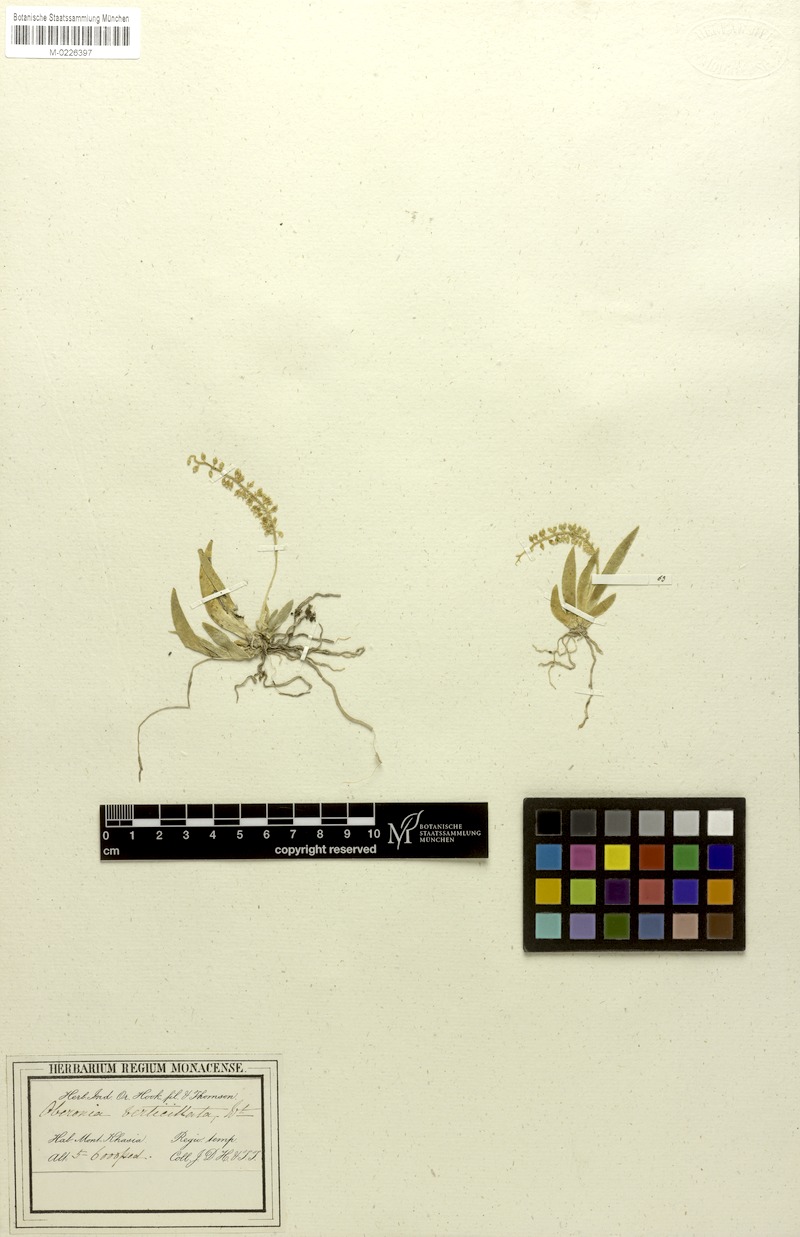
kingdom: Plantae
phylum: Tracheophyta
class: Liliopsida
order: Asparagales
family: Orchidaceae
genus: Oberonia
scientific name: Oberonia pyrulifera
